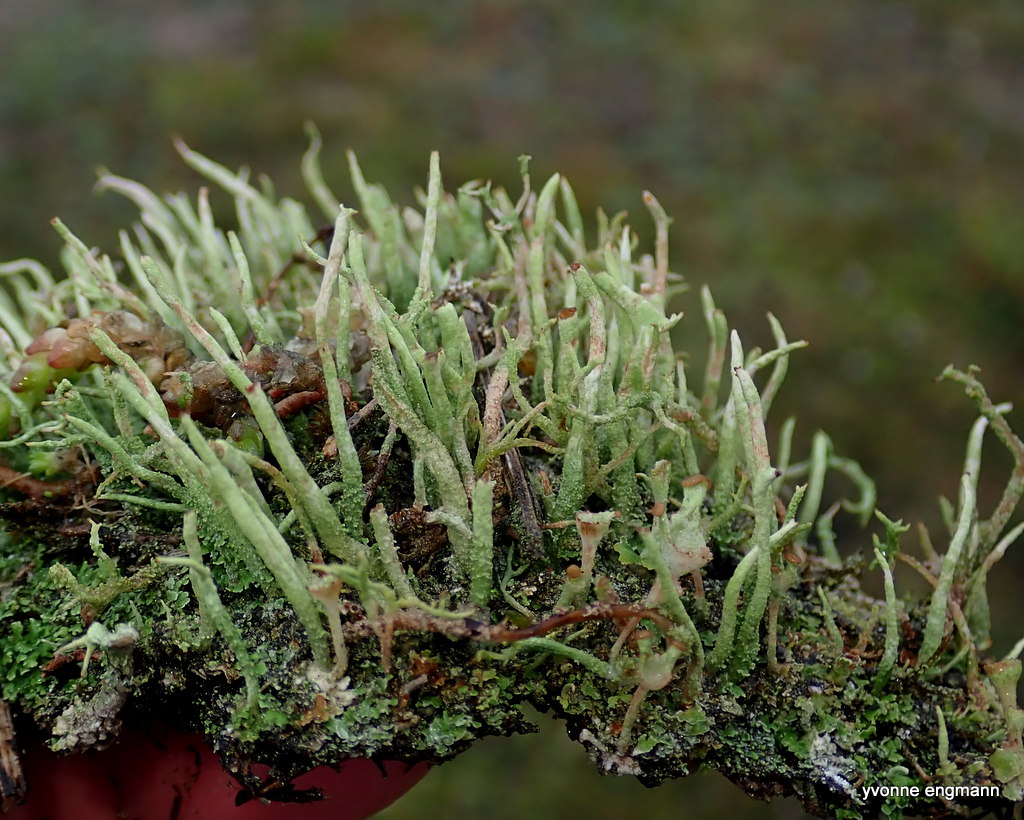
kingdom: Fungi
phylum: Ascomycota
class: Lecanoromycetes
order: Lecanorales
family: Cladoniaceae
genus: Cladonia
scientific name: Cladonia ochrochlora
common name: stød-bægerlav
